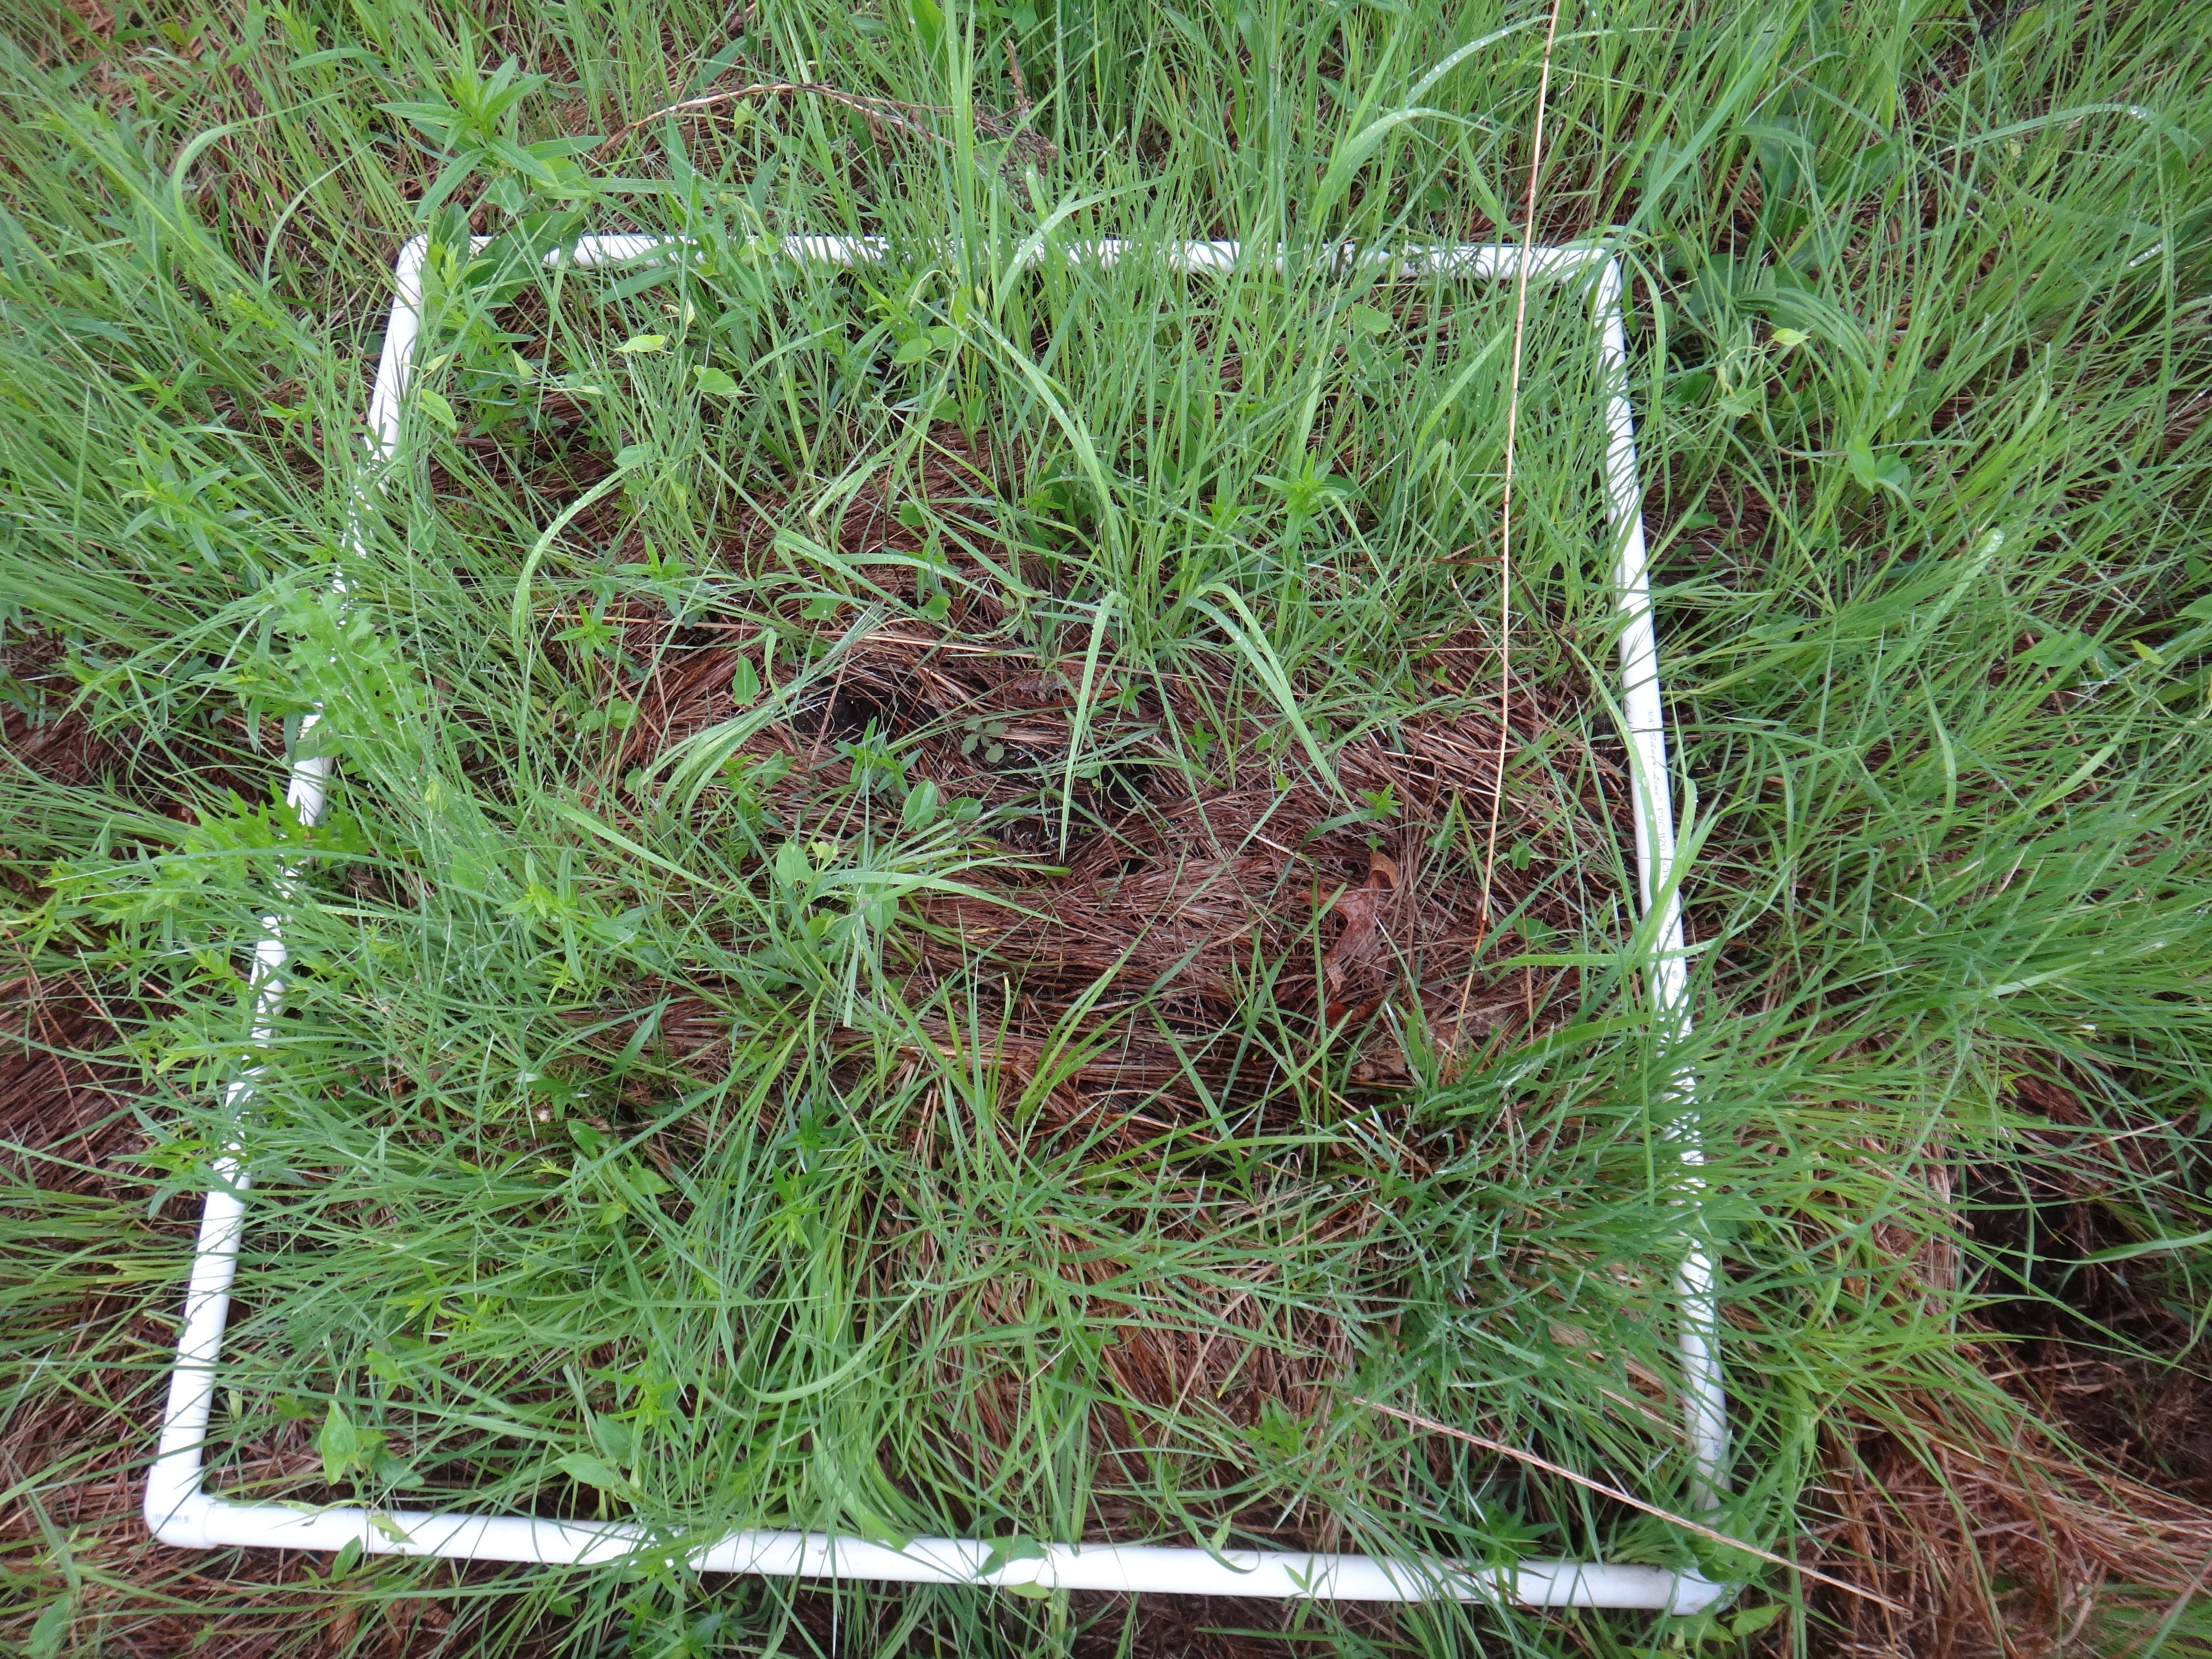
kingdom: Plantae
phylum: Tracheophyta
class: Magnoliopsida
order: Gentianales
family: Rubiaceae
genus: Galium
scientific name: Galium boreale
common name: Northern bedstraw
